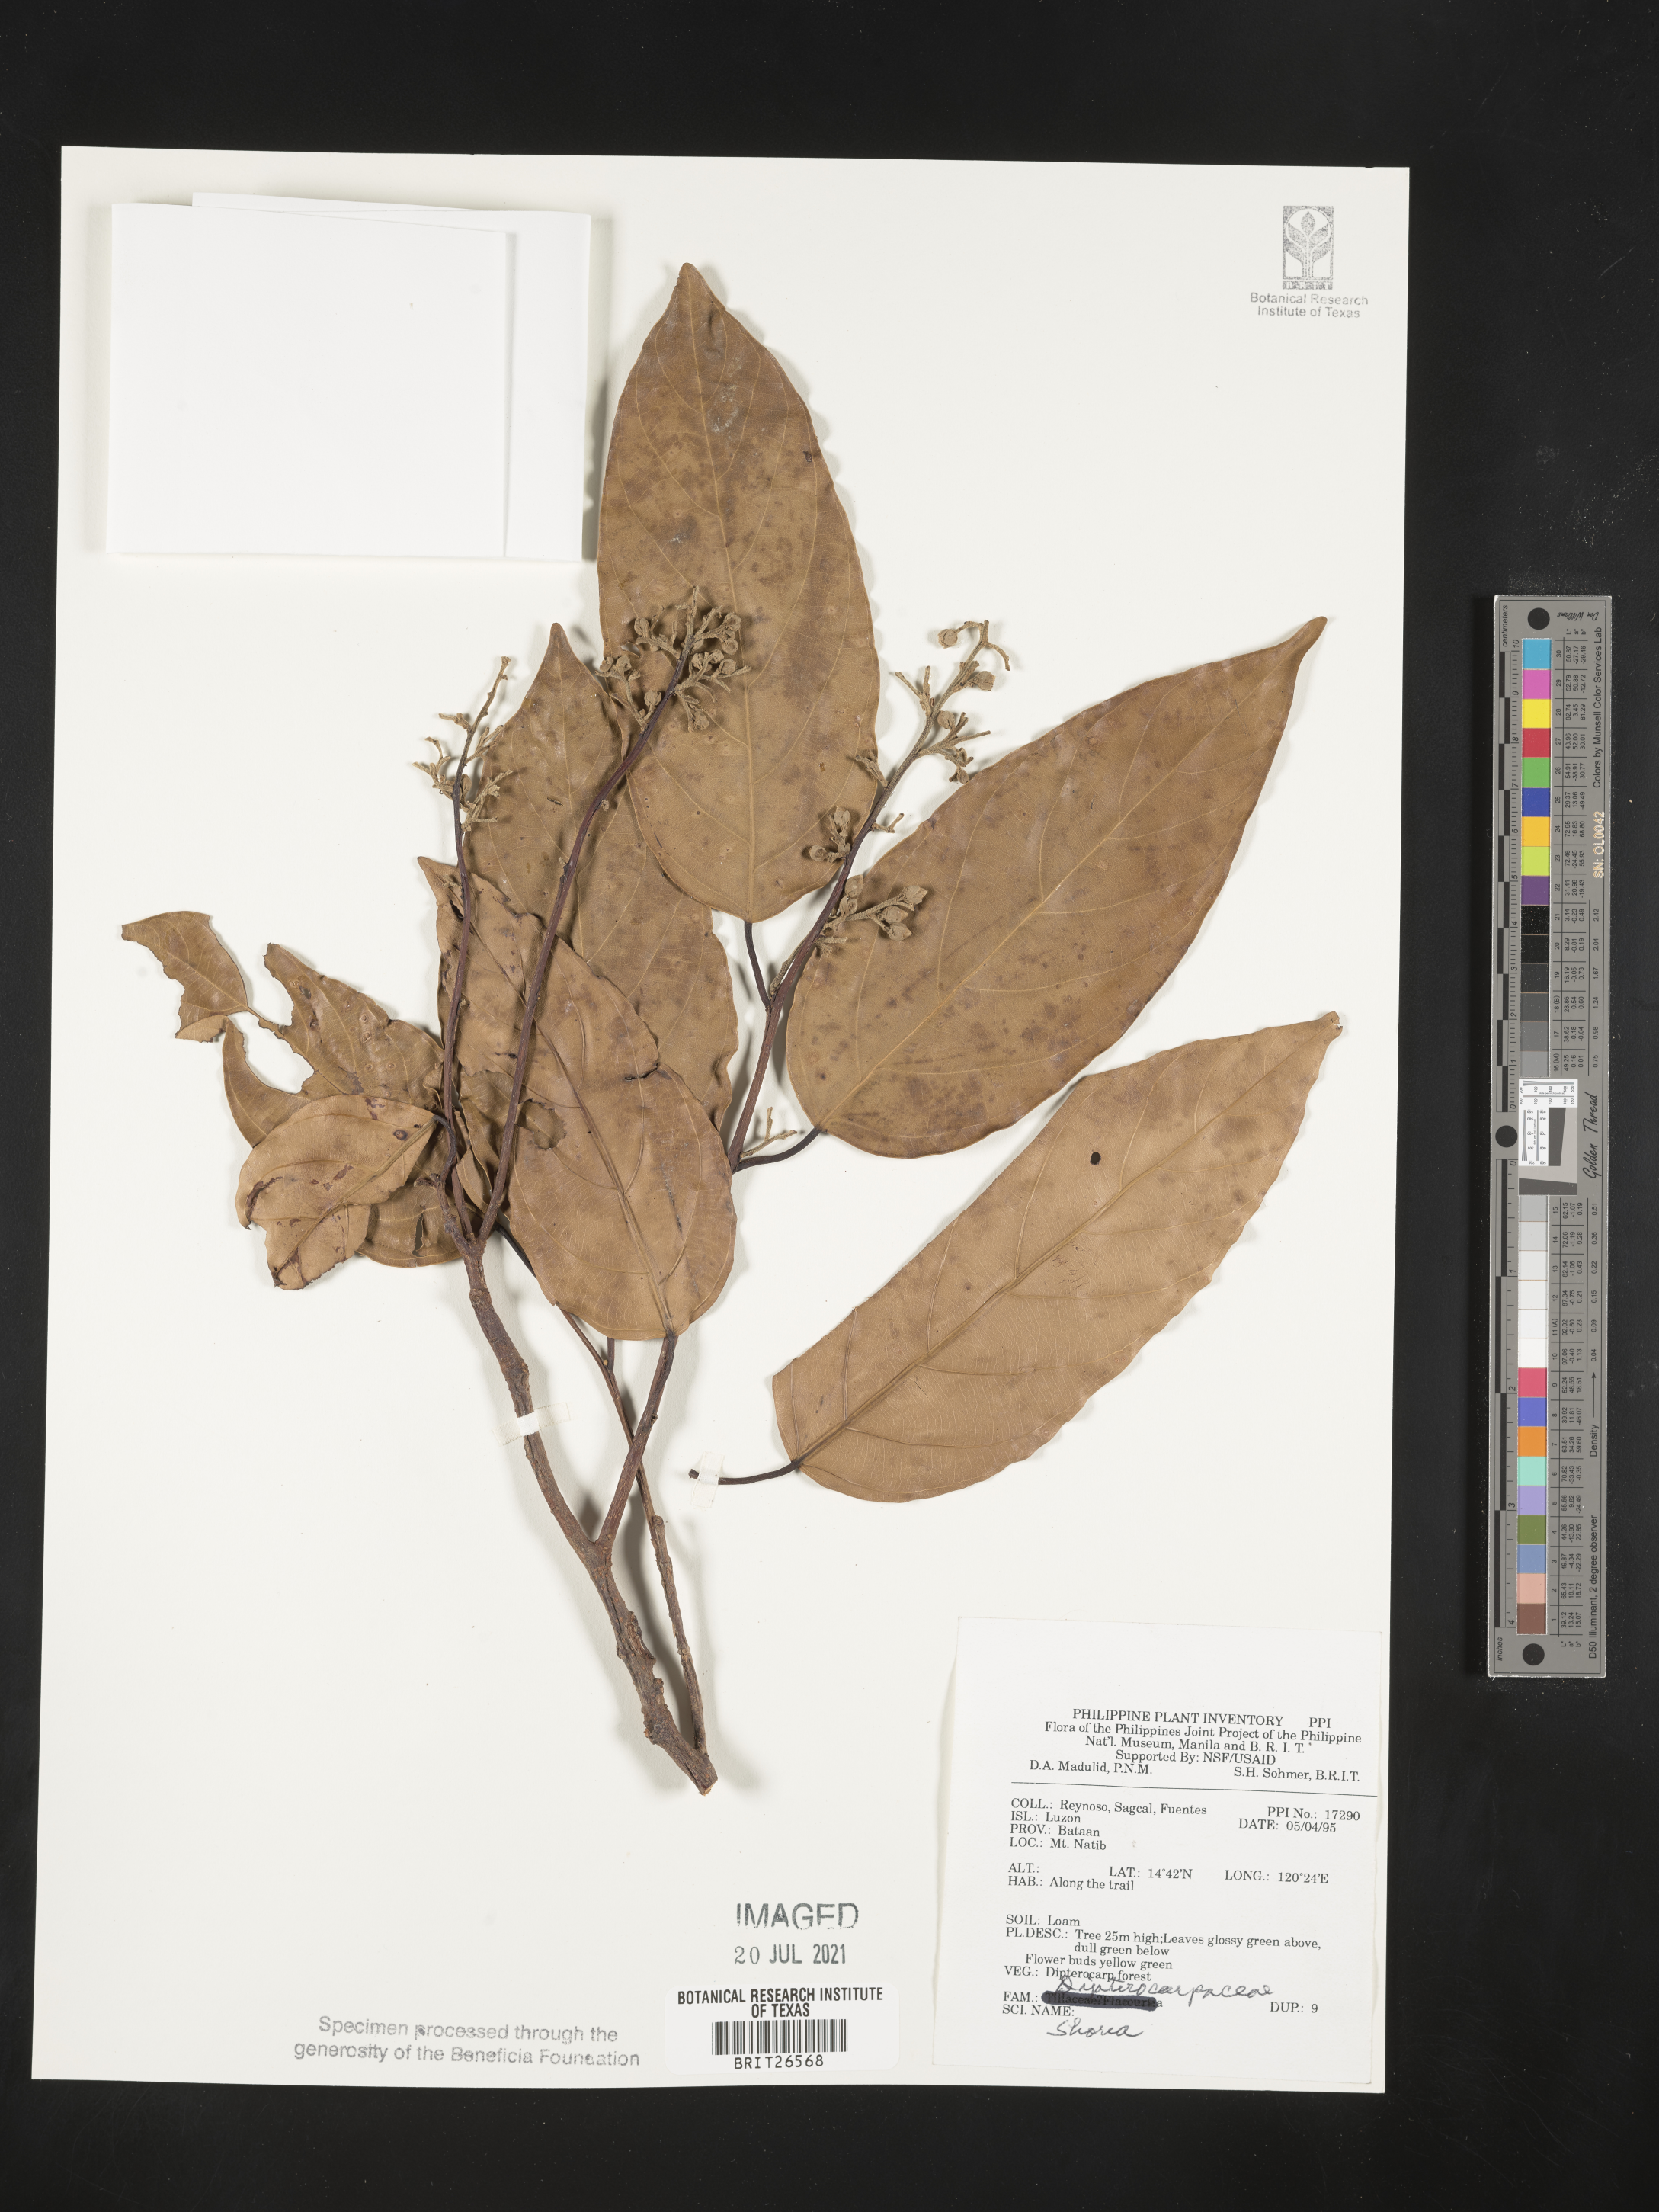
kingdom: Plantae
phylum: Tracheophyta
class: Magnoliopsida
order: Malvales
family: Dipterocarpaceae
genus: Shorea
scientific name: Shorea
